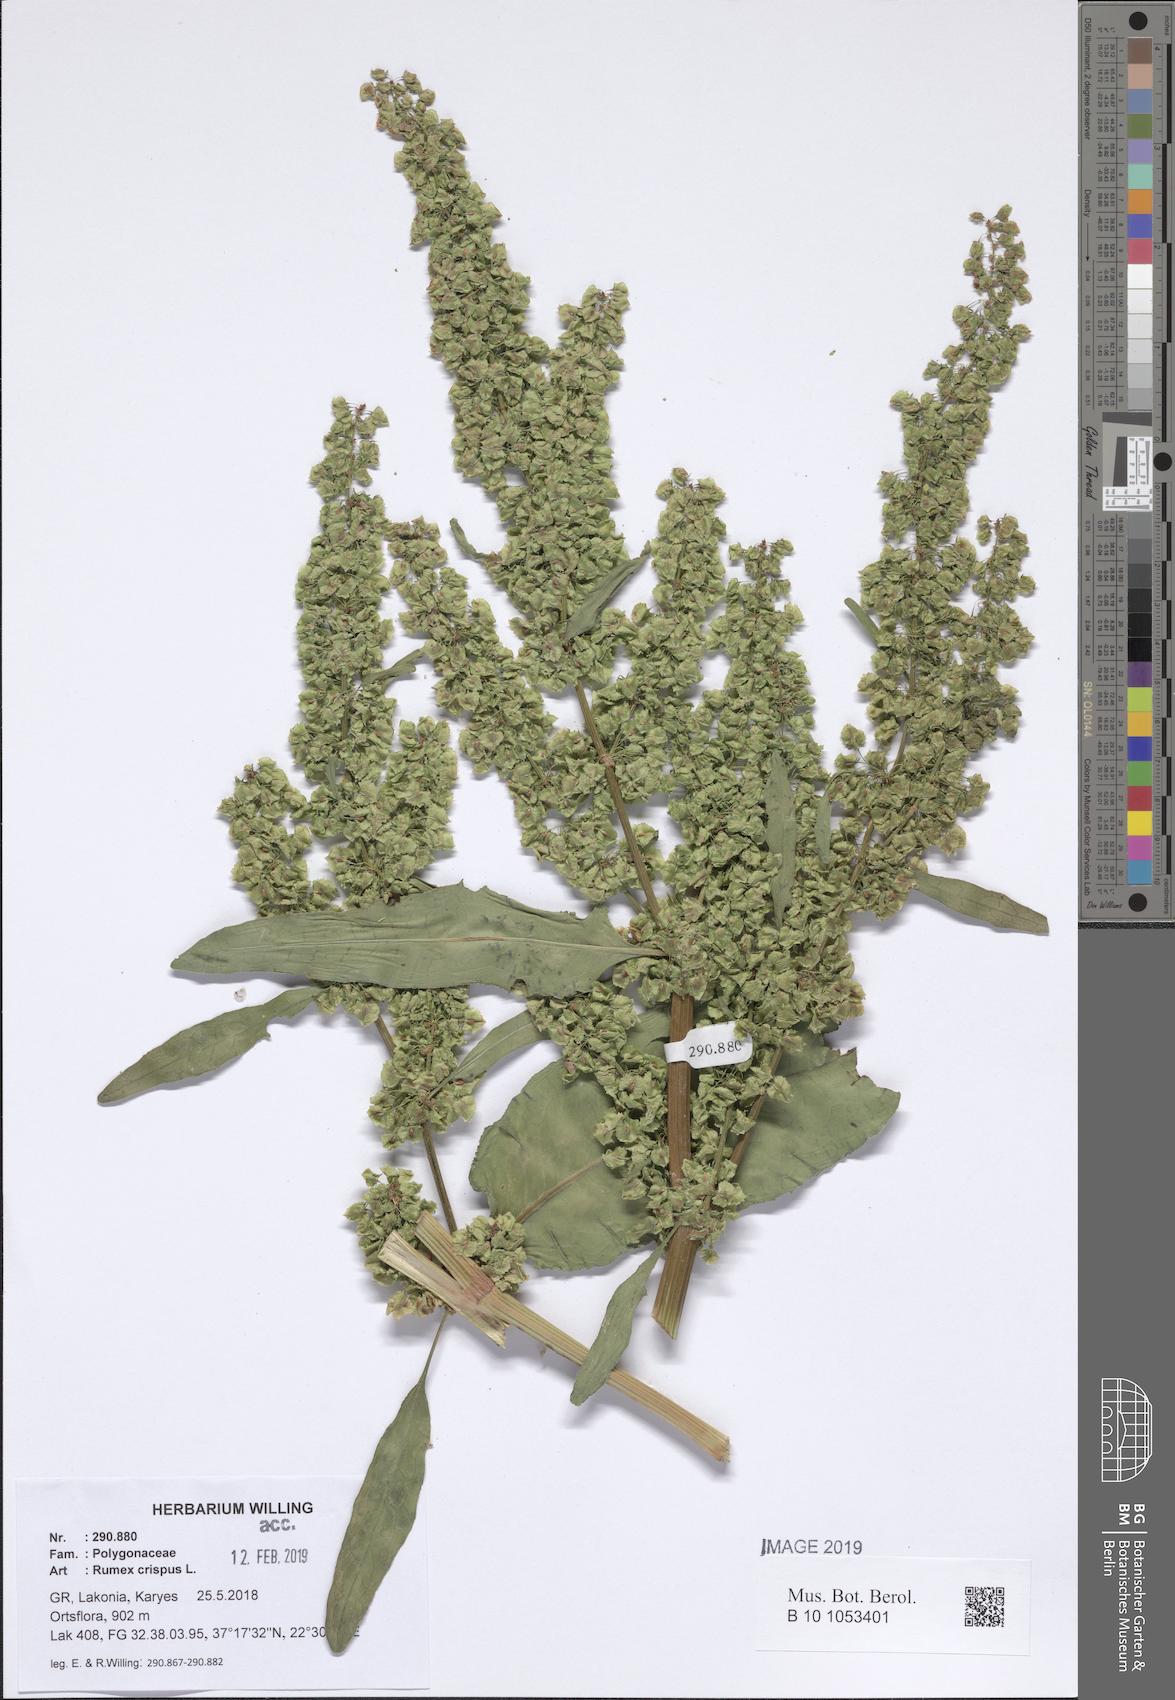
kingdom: Plantae
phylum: Tracheophyta
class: Magnoliopsida
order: Caryophyllales
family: Polygonaceae
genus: Rumex
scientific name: Rumex crispus
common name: Curled dock
